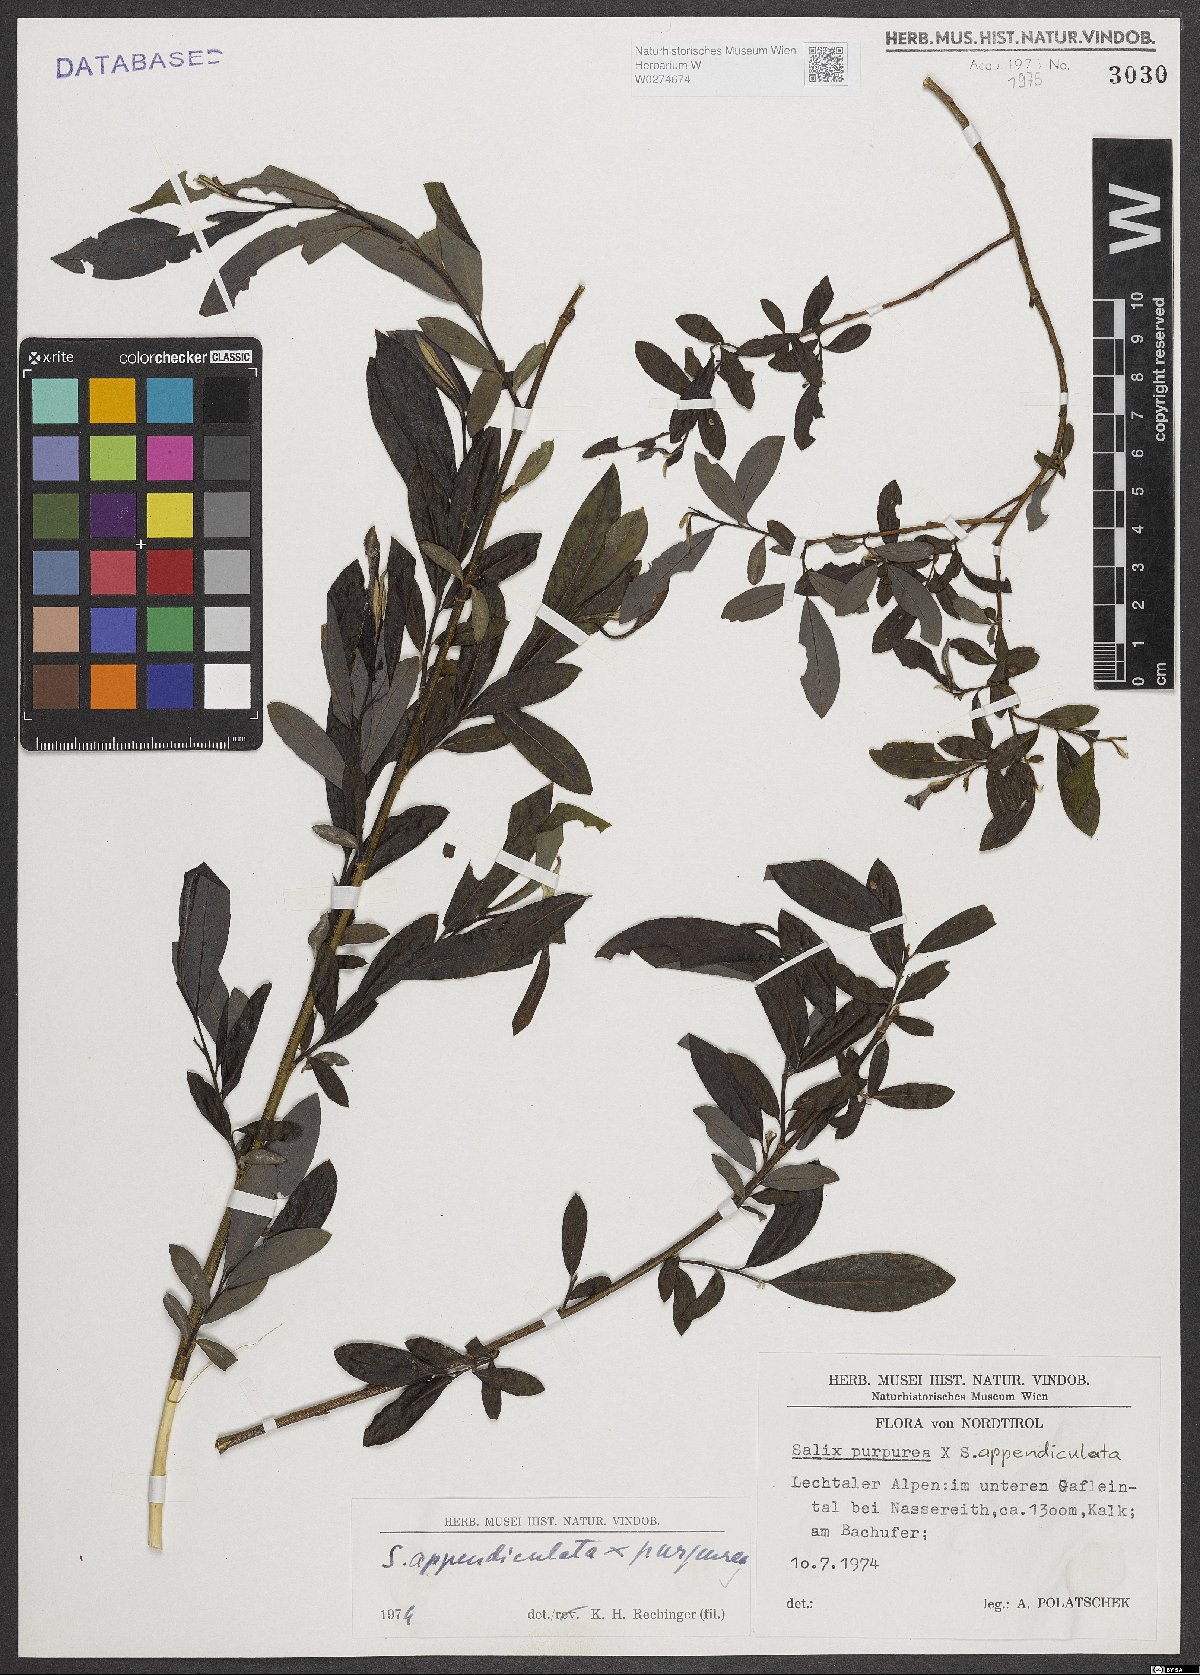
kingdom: Plantae
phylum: Tracheophyta
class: Magnoliopsida
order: Malpighiales
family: Salicaceae
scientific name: Salicaceae
